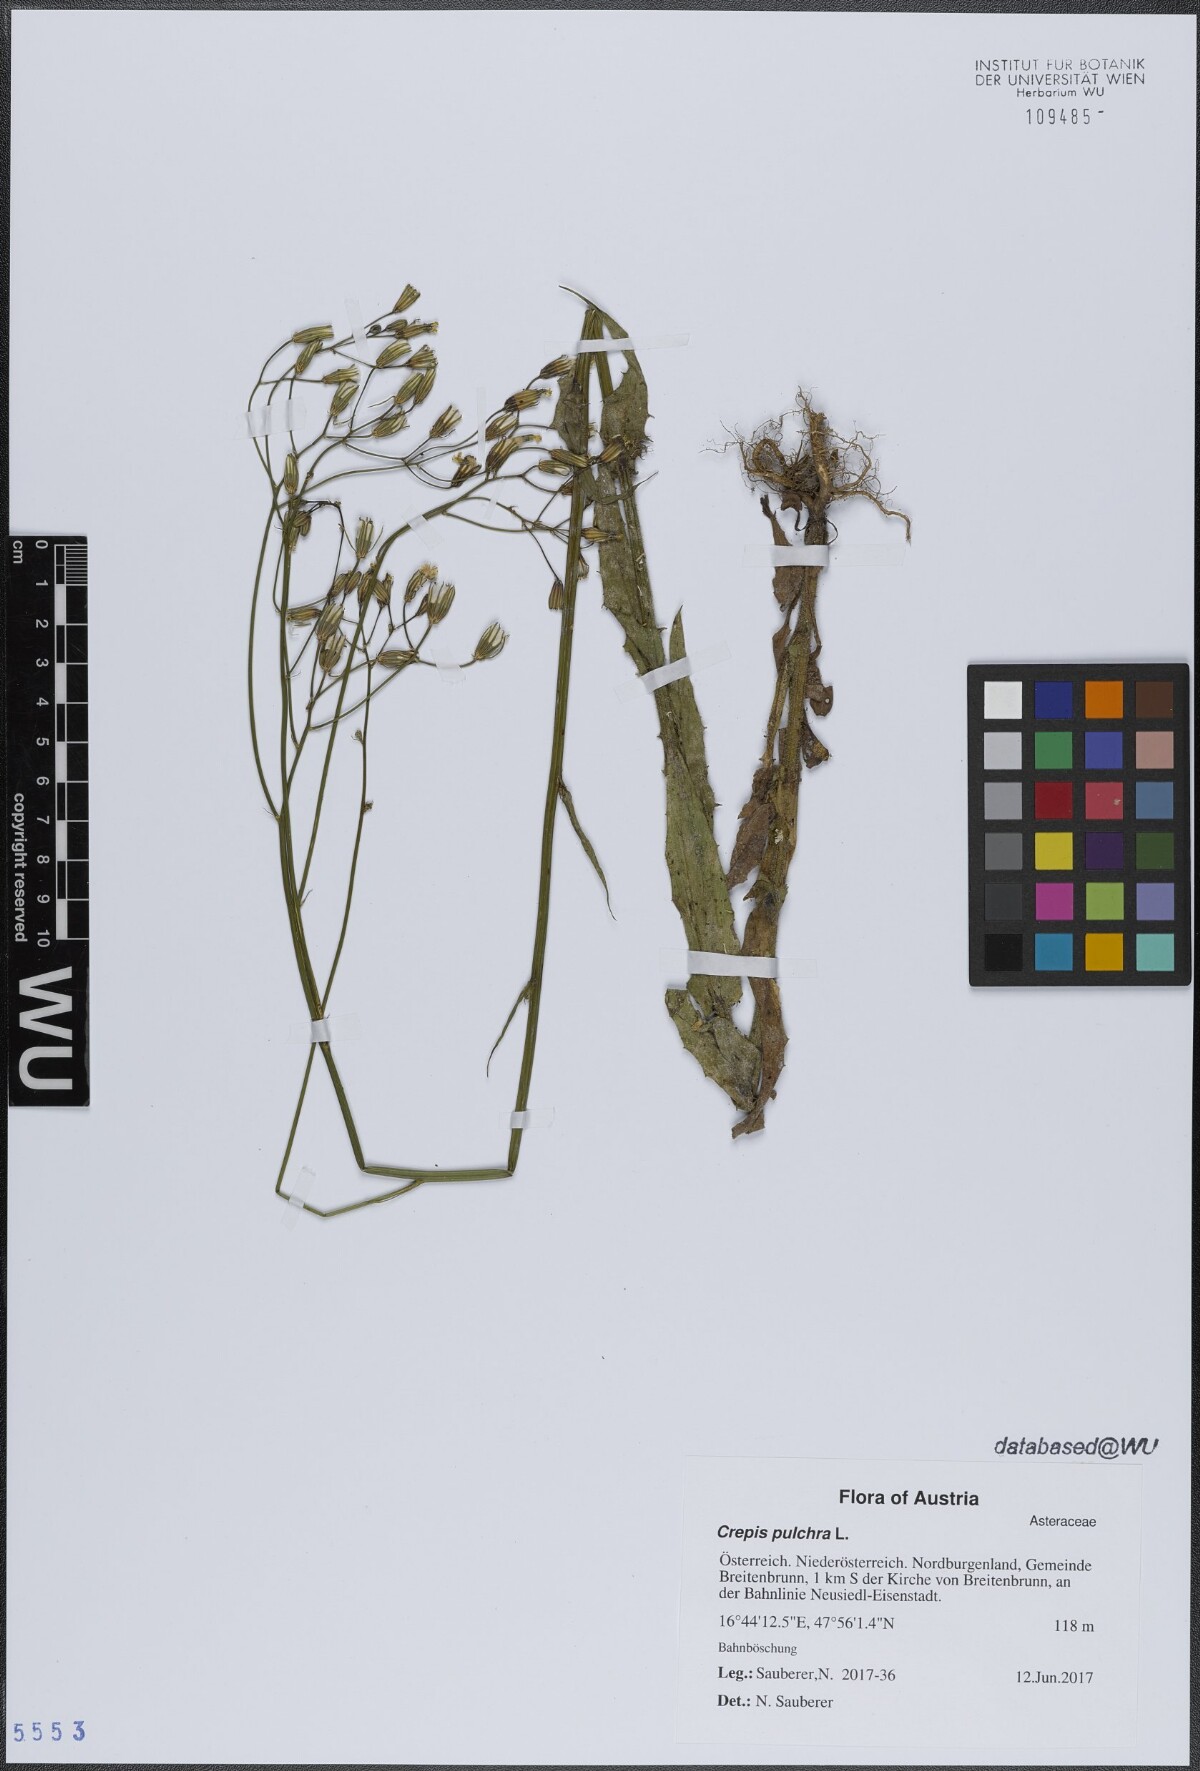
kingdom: Plantae
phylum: Tracheophyta
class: Magnoliopsida
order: Asterales
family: Asteraceae
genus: Crepis
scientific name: Crepis pulchra
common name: Hawk's-beard
